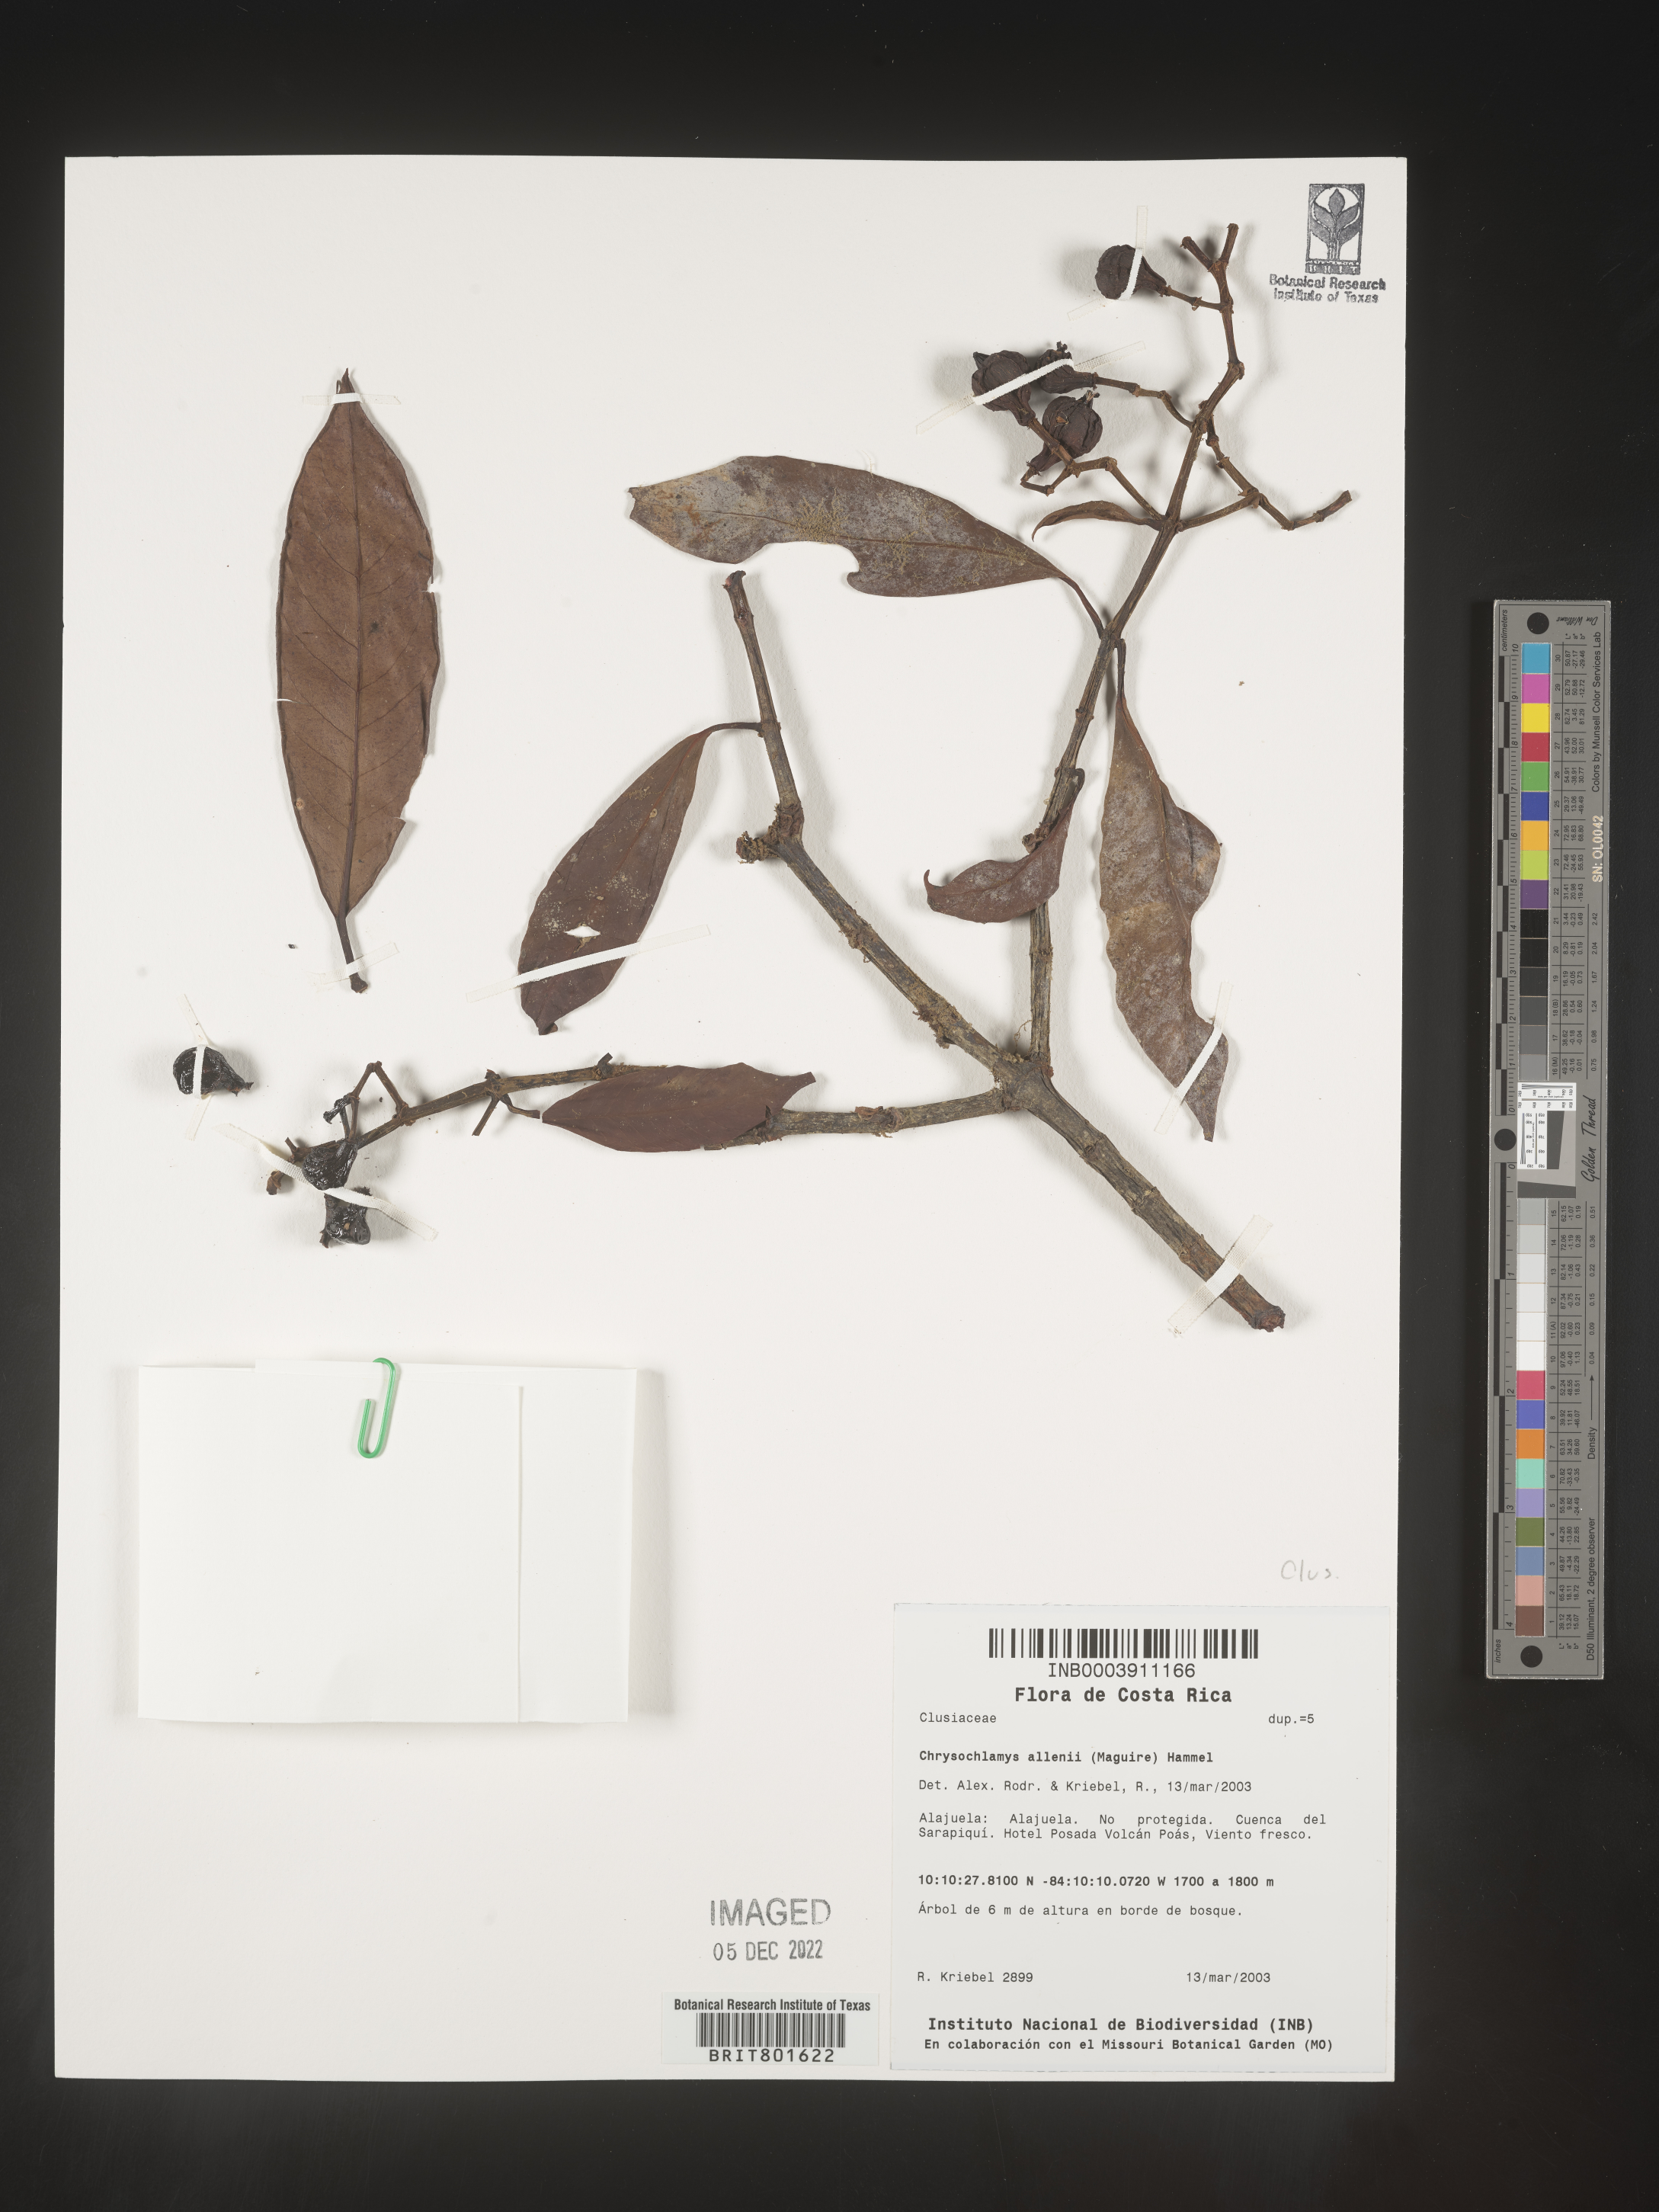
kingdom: Plantae
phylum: Tracheophyta
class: Magnoliopsida
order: Malpighiales
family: Clusiaceae
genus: Chrysochlamys
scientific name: Chrysochlamys
